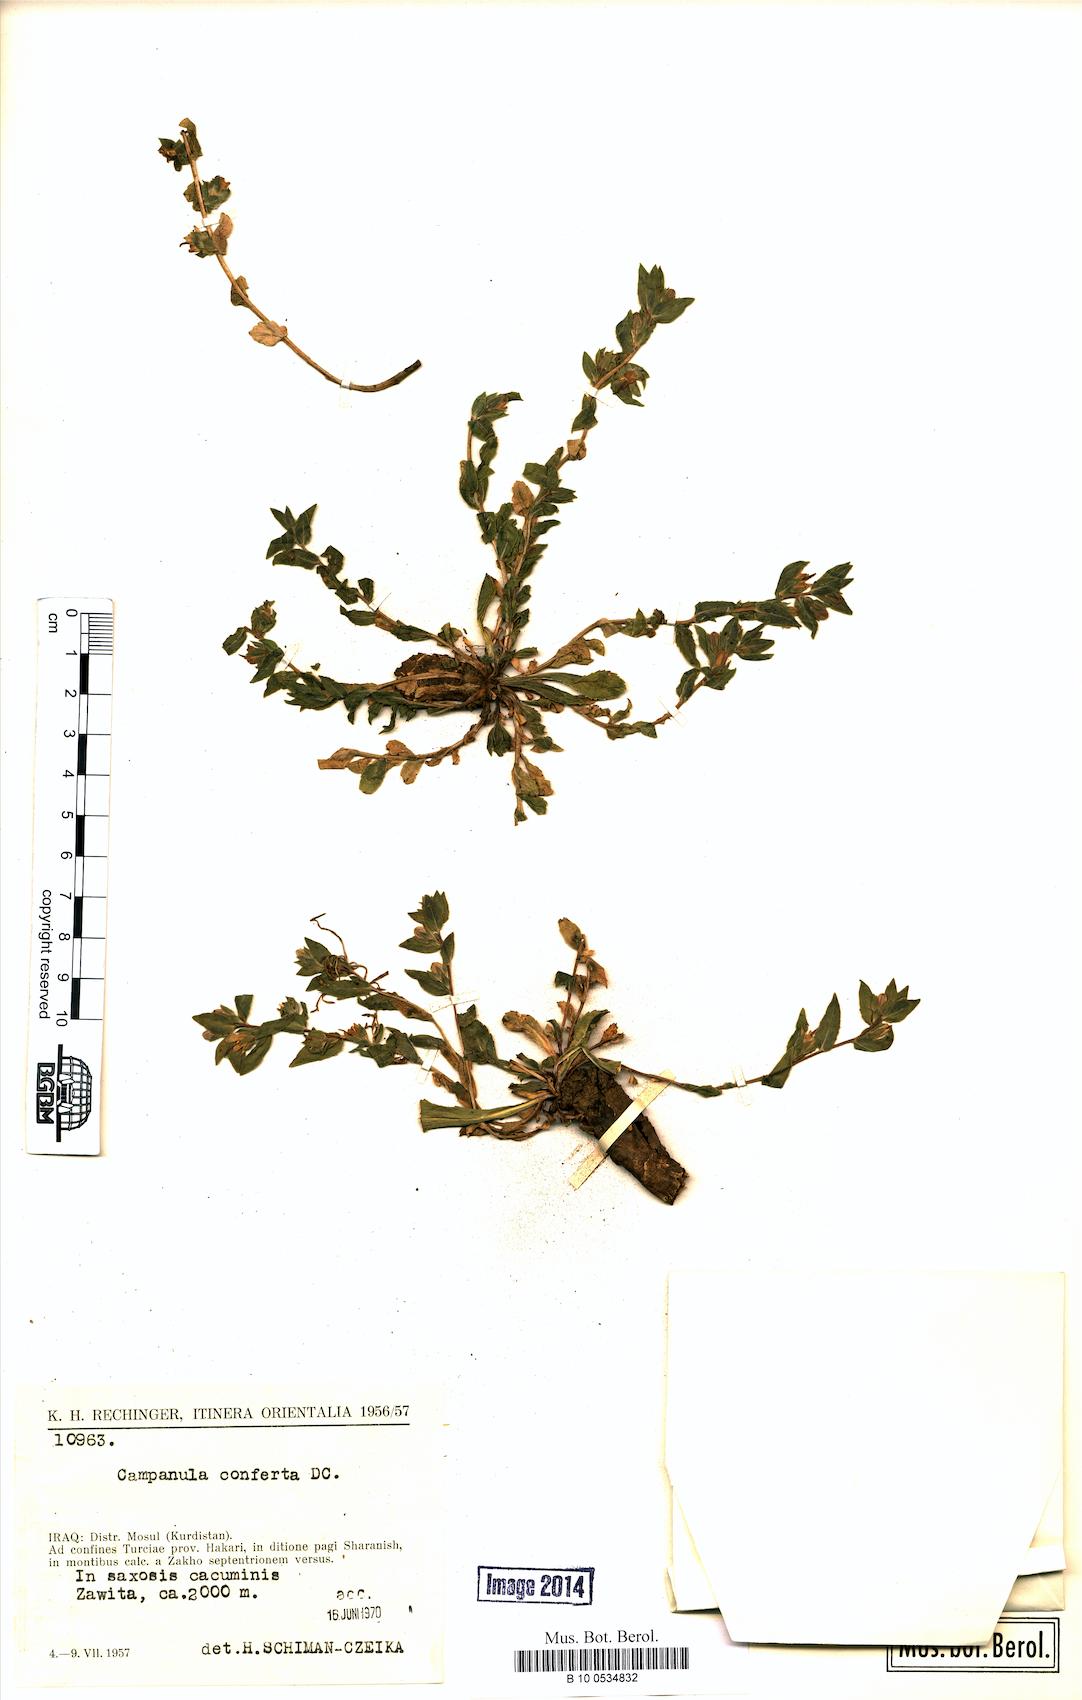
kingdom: Plantae
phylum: Tracheophyta
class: Magnoliopsida
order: Asterales
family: Campanulaceae
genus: Campanula
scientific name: Campanula conferta
